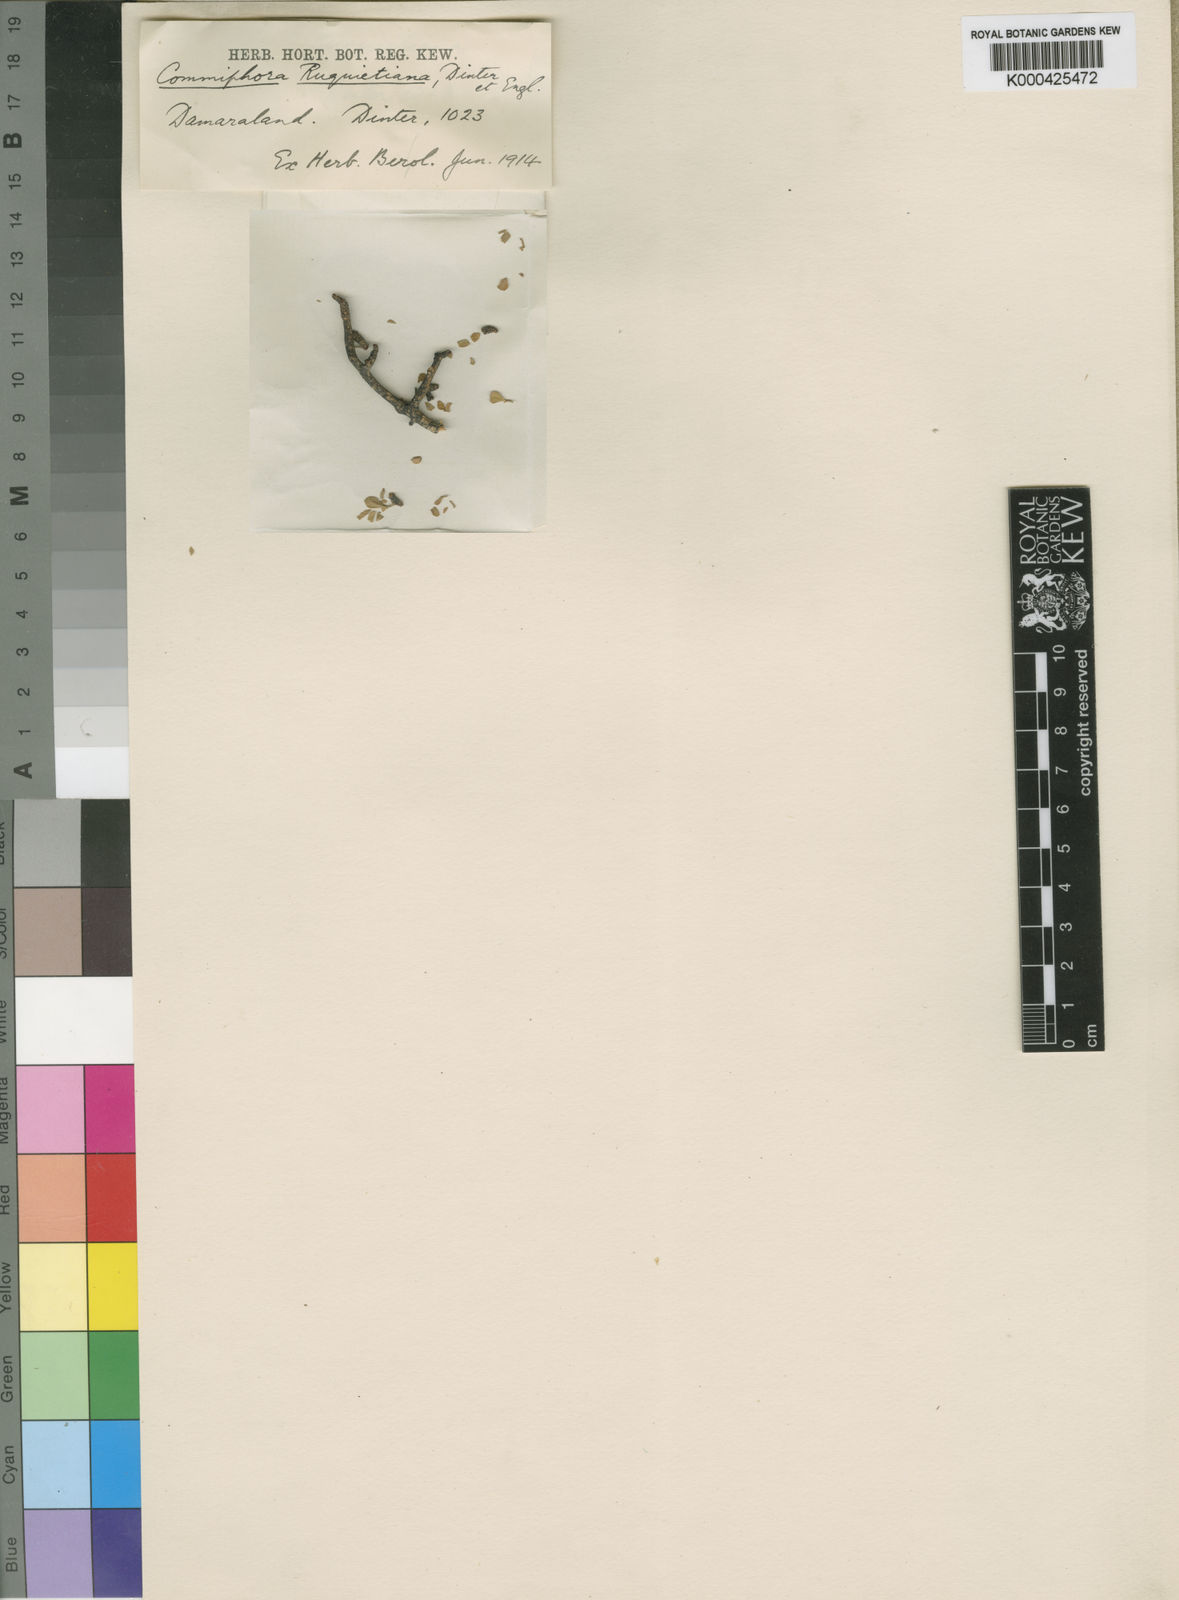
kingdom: Plantae
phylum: Tracheophyta
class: Magnoliopsida
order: Sapindales
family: Burseraceae
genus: Commiphora
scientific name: Commiphora capensis
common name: Namaqua commiphora
